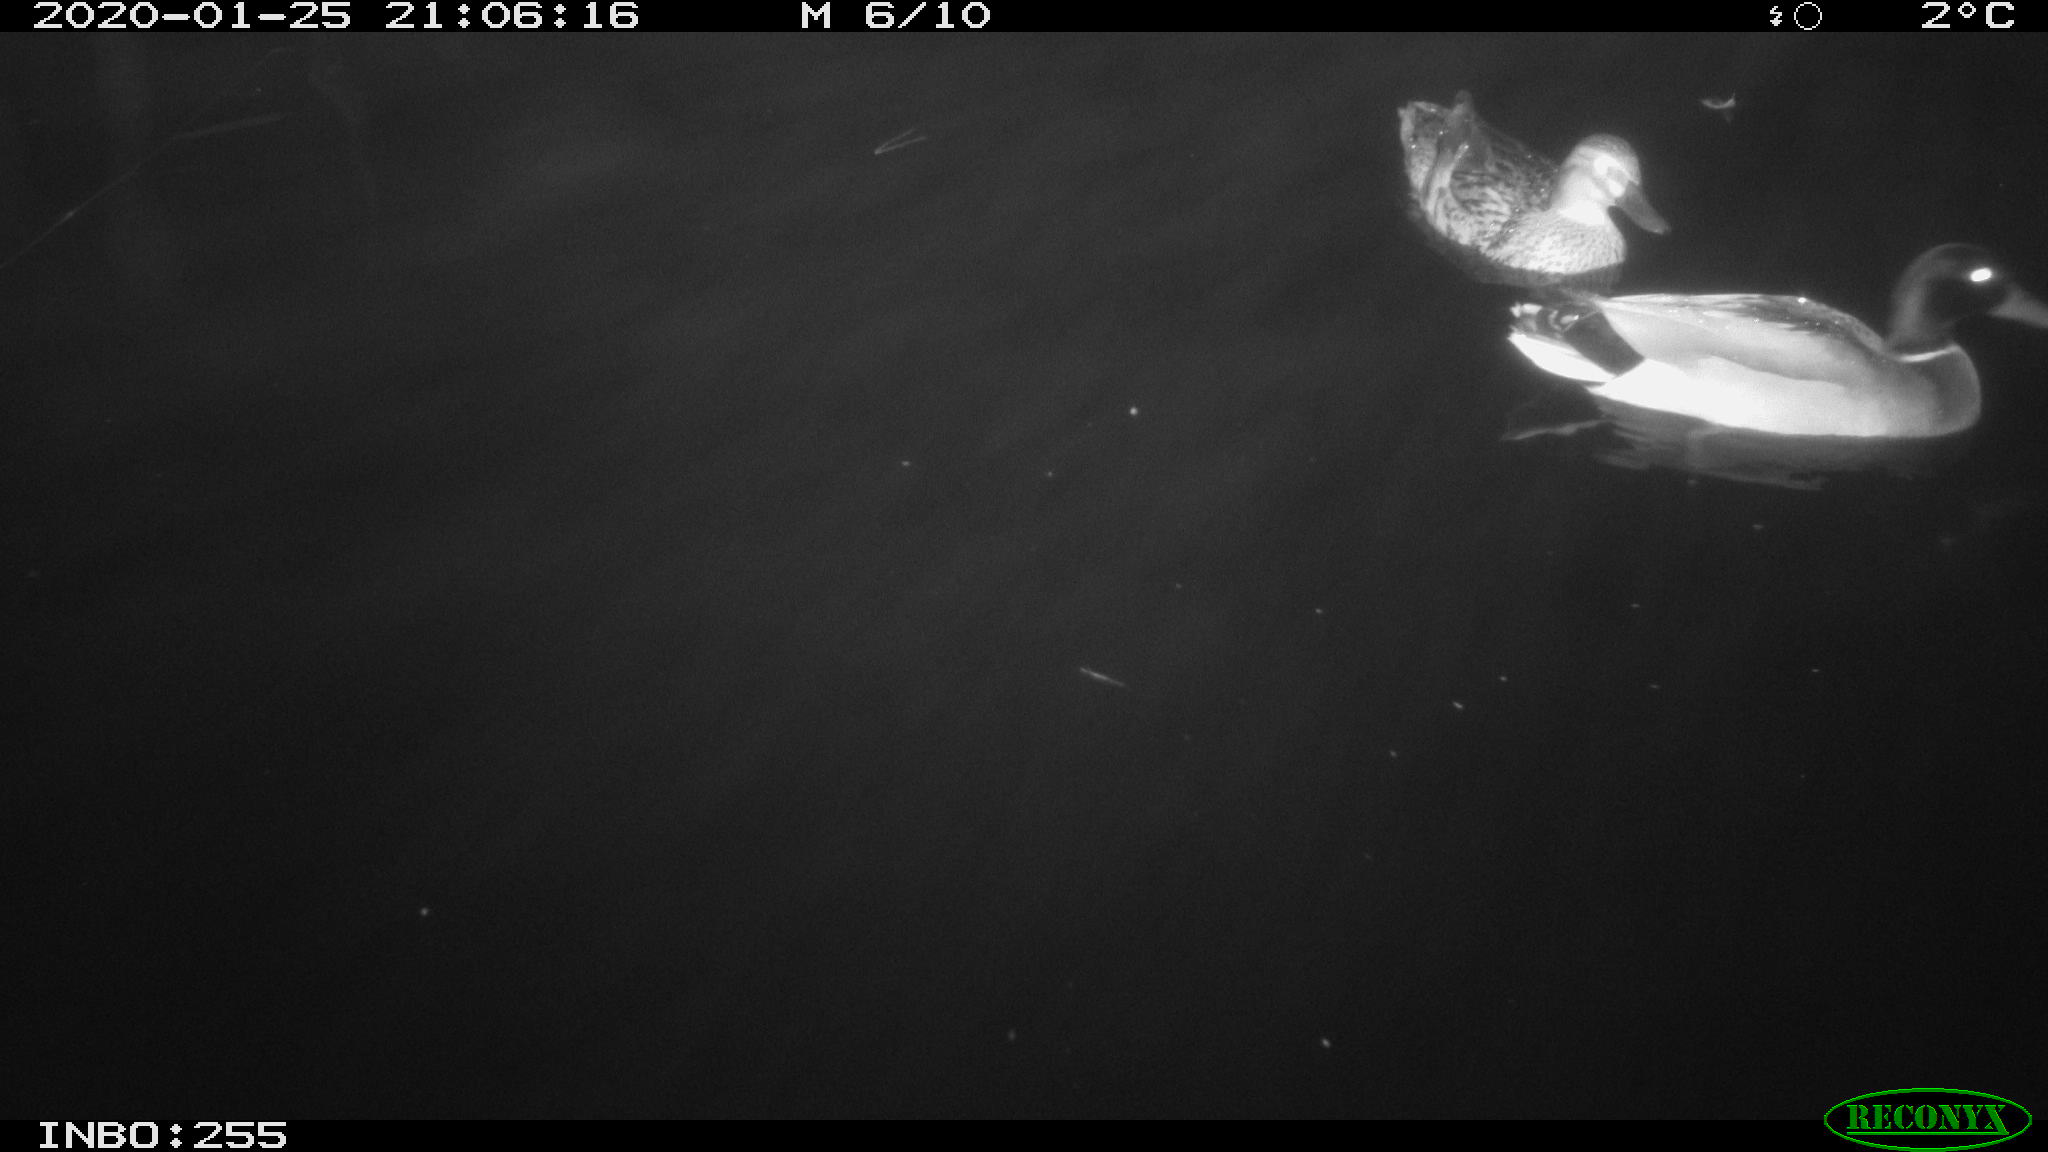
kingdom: Animalia
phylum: Chordata
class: Aves
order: Anseriformes
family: Anatidae
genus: Anas
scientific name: Anas platyrhynchos
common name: Mallard
